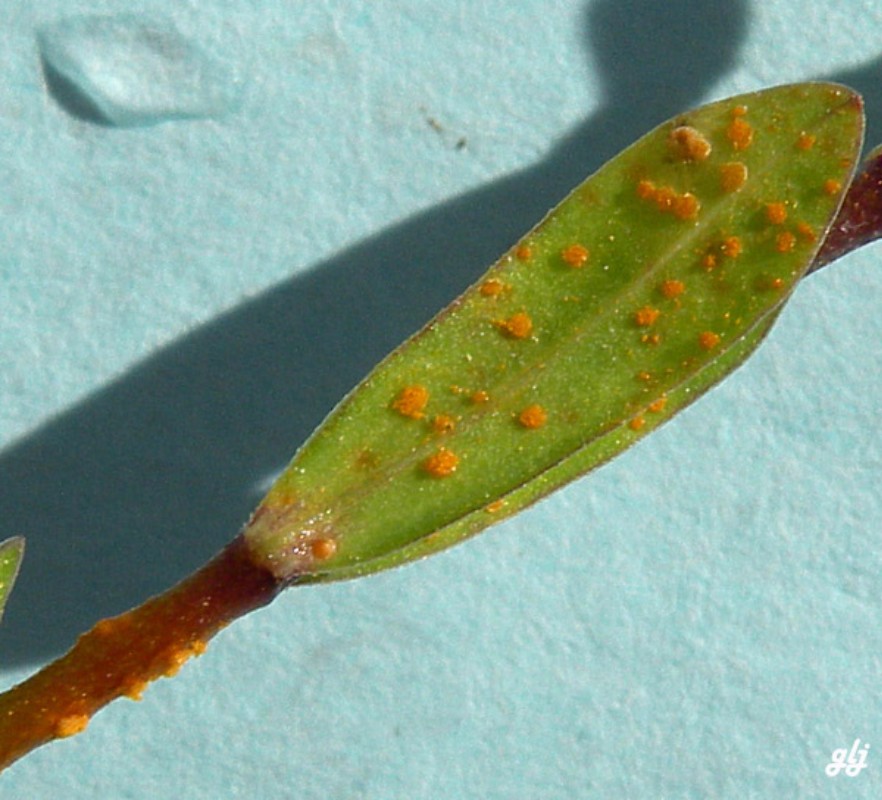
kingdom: Fungi
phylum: Basidiomycota
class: Pucciniomycetes
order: Pucciniales
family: Melampsoraceae
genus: Melampsora
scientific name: Melampsora lini
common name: hør-skorperust
